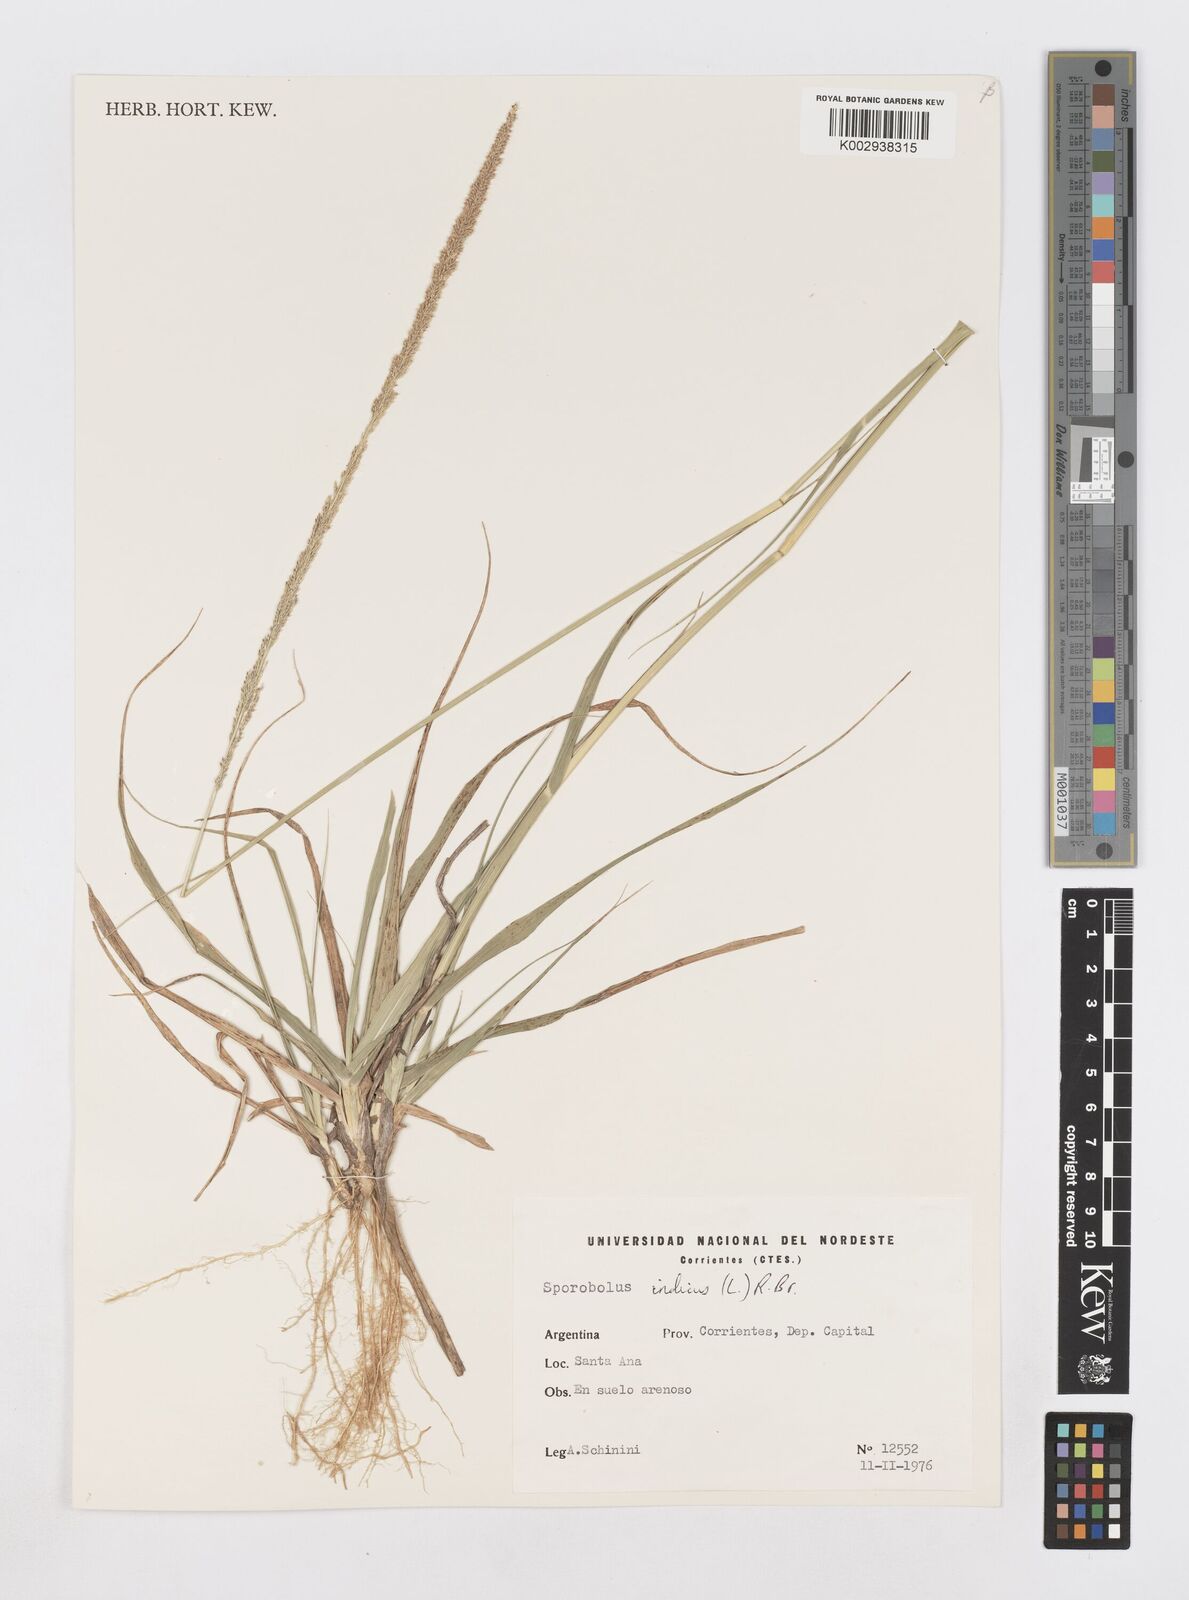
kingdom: Plantae
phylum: Tracheophyta
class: Liliopsida
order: Poales
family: Poaceae
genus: Sporobolus
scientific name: Sporobolus indicus
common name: Smut grass
